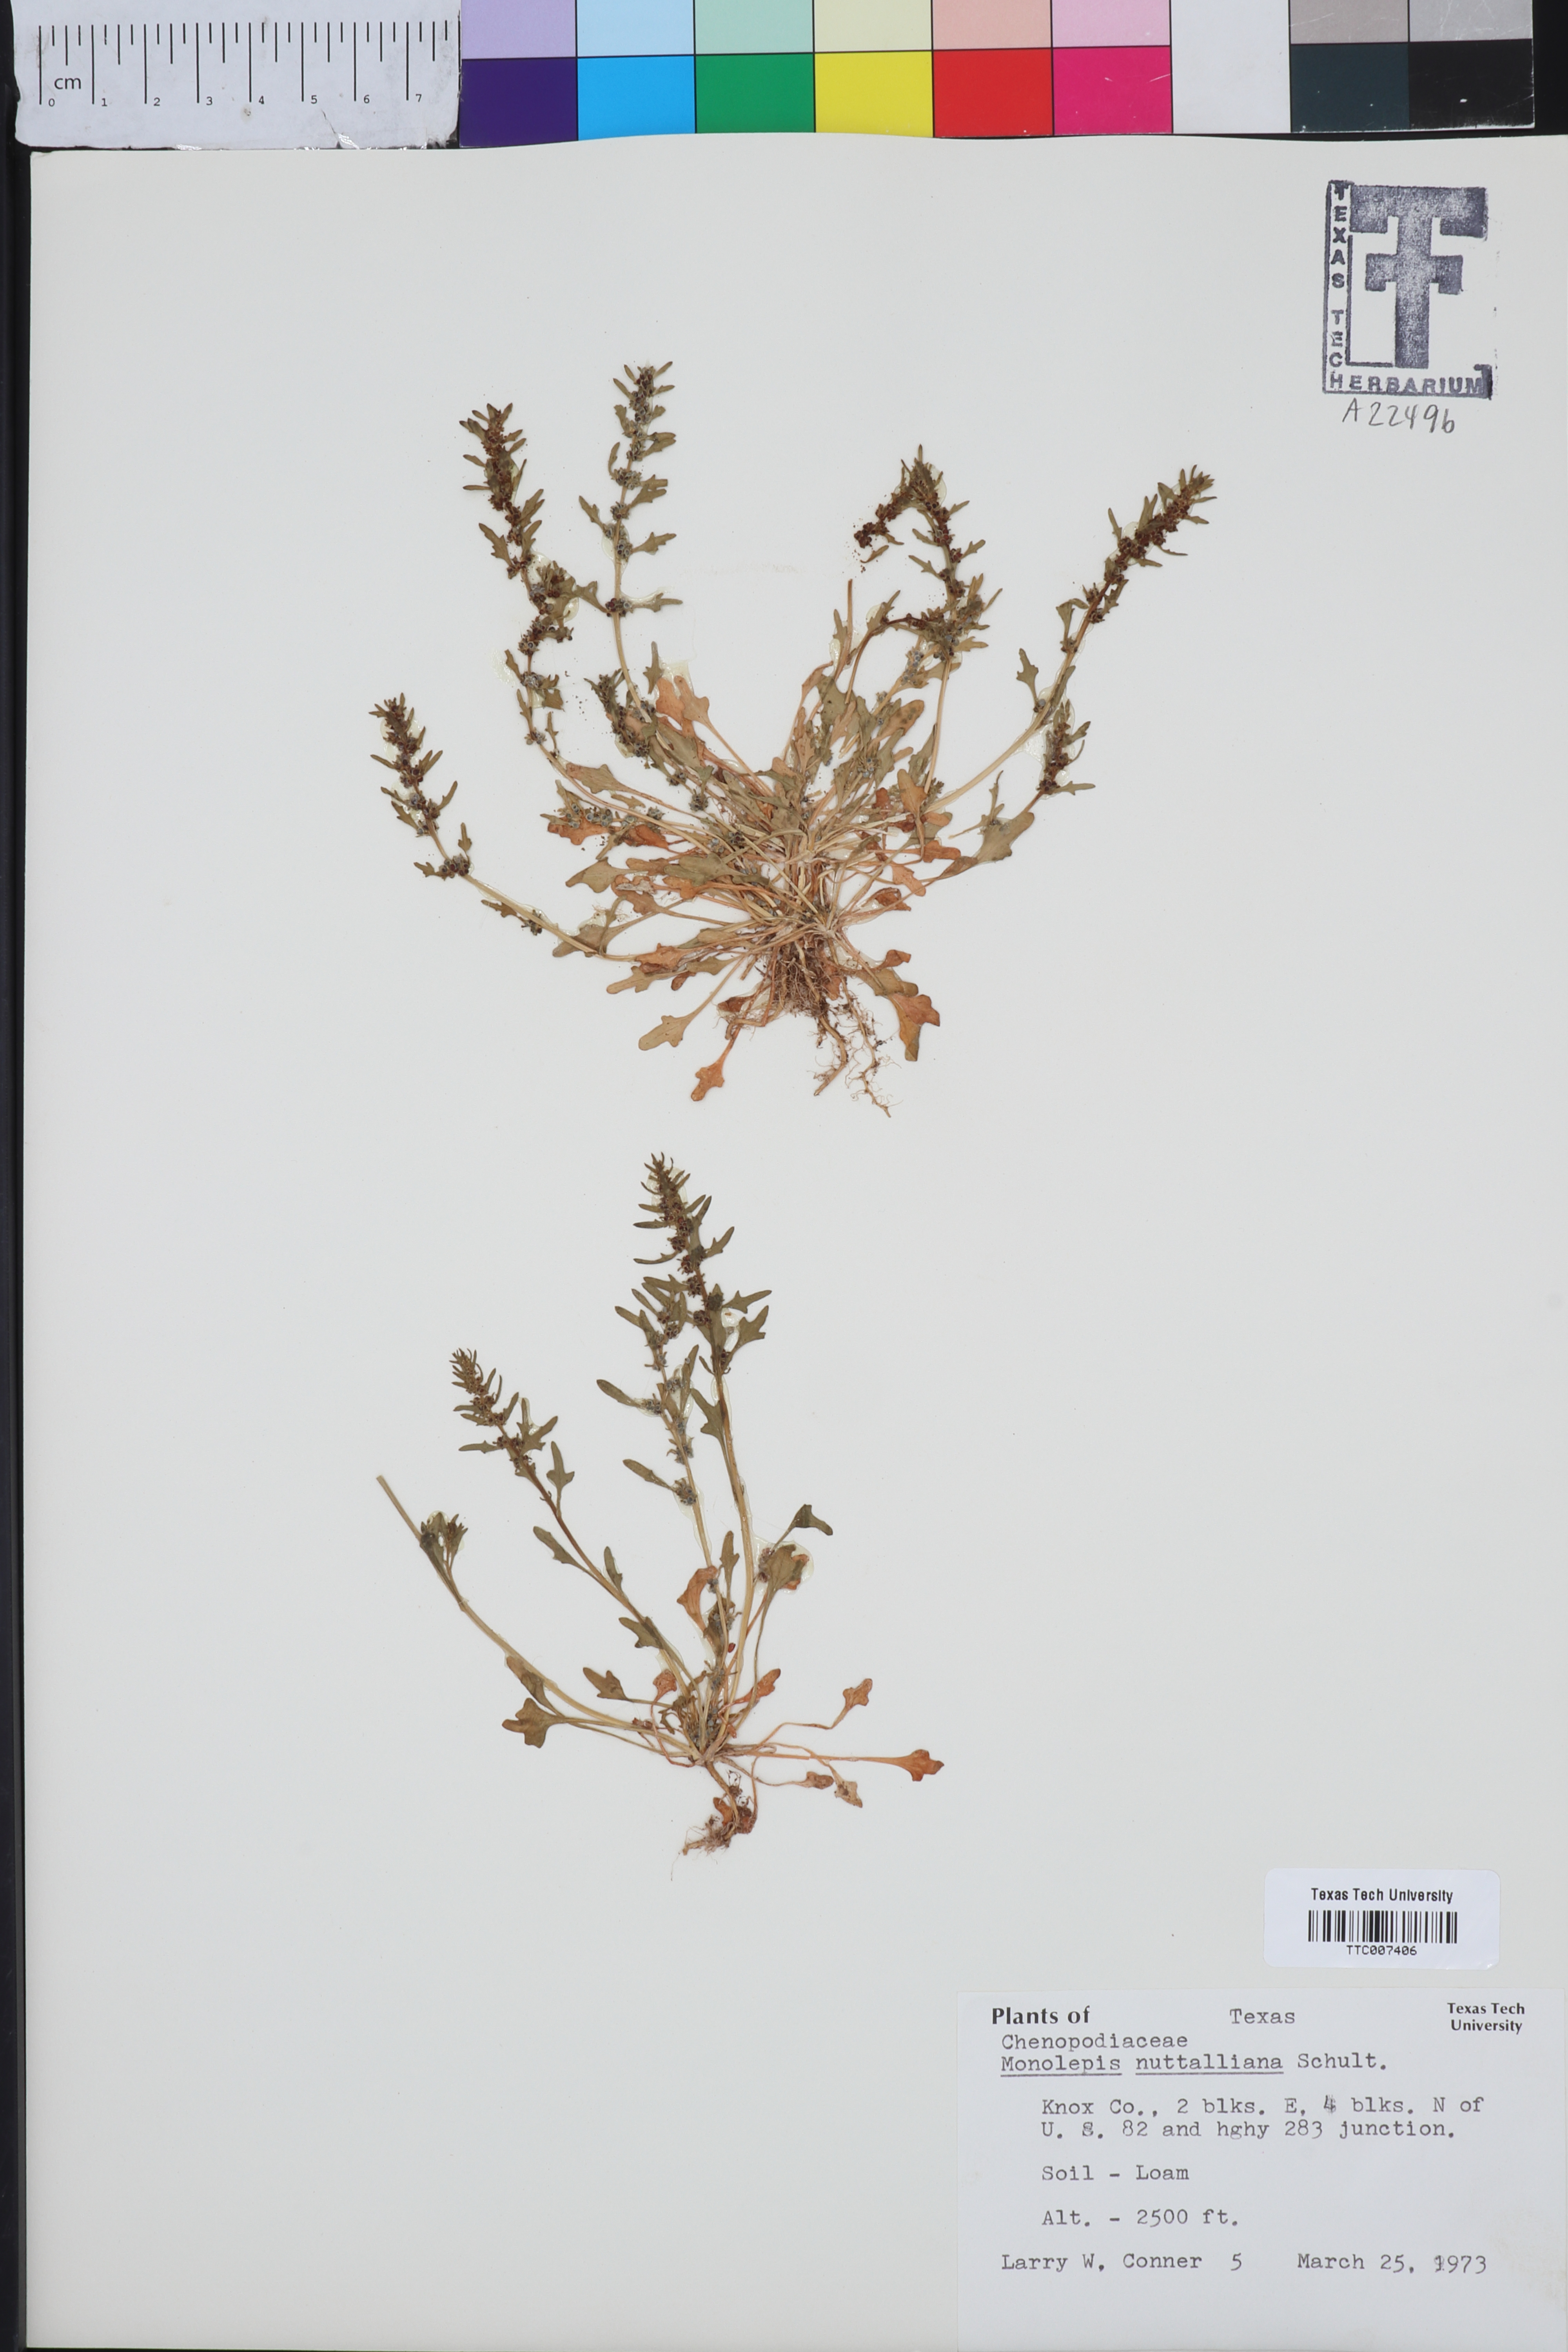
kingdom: Plantae
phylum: Tracheophyta
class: Magnoliopsida
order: Caryophyllales
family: Amaranthaceae
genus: Blitum
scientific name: Blitum nuttallianum
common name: Poverty-weed
